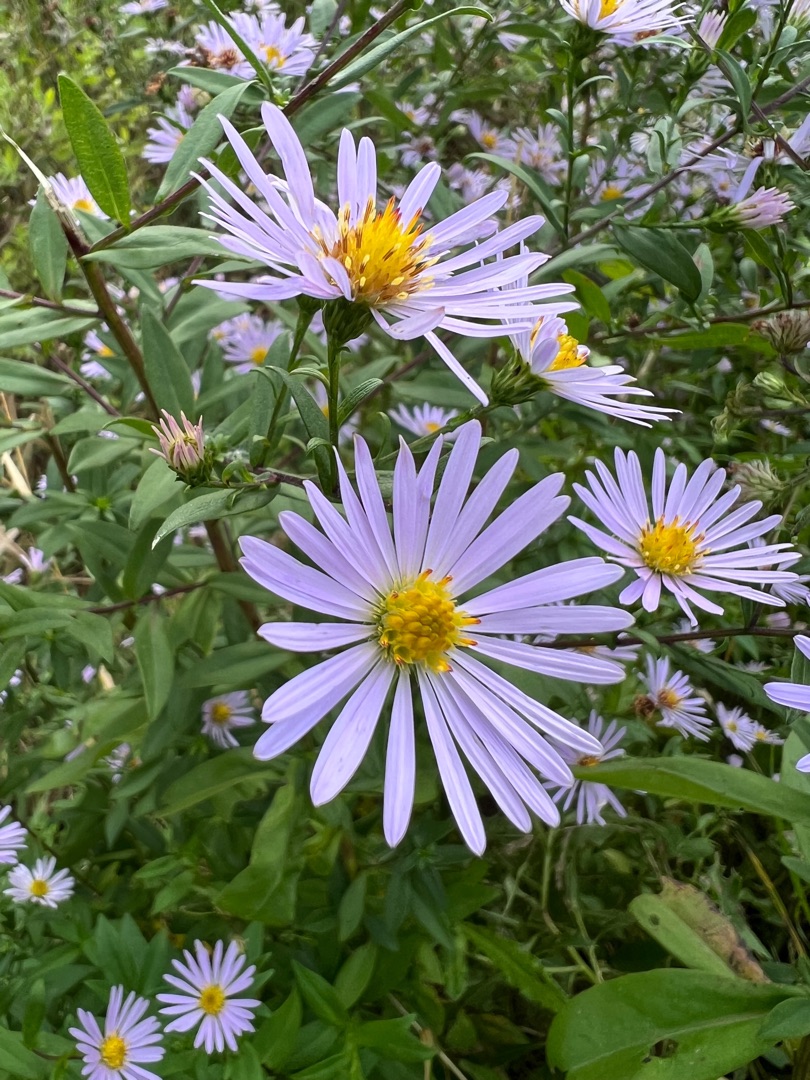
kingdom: Plantae
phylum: Tracheophyta
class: Magnoliopsida
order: Asterales
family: Asteraceae
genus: Symphyotrichum
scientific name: Symphyotrichum versicolor
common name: Broget asters
